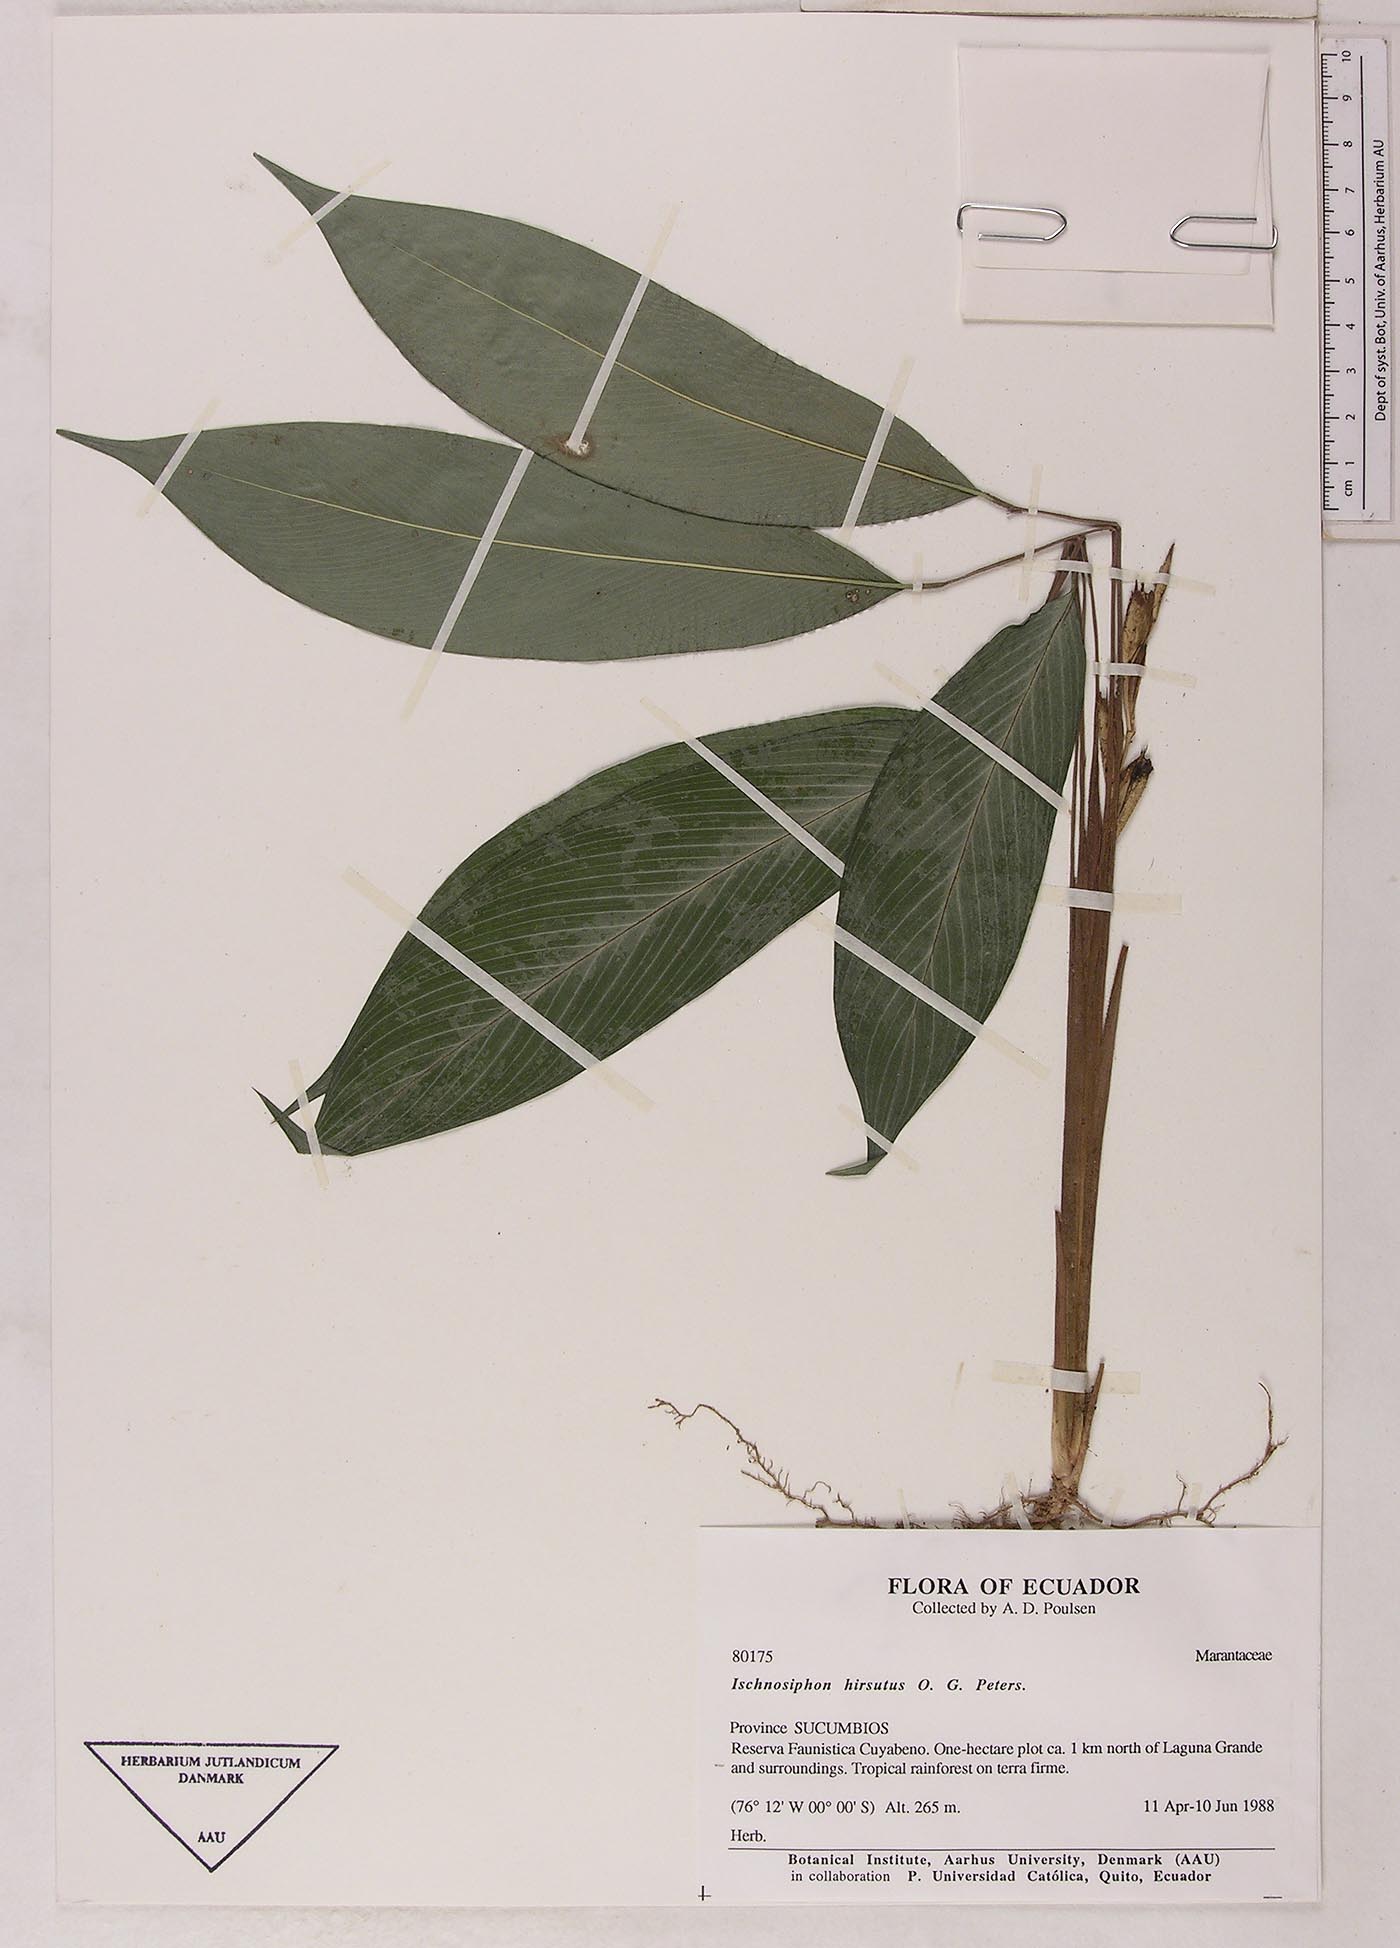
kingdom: Plantae
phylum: Tracheophyta
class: Liliopsida
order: Zingiberales
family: Marantaceae
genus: Ischnosiphon
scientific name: Ischnosiphon hirsutus
